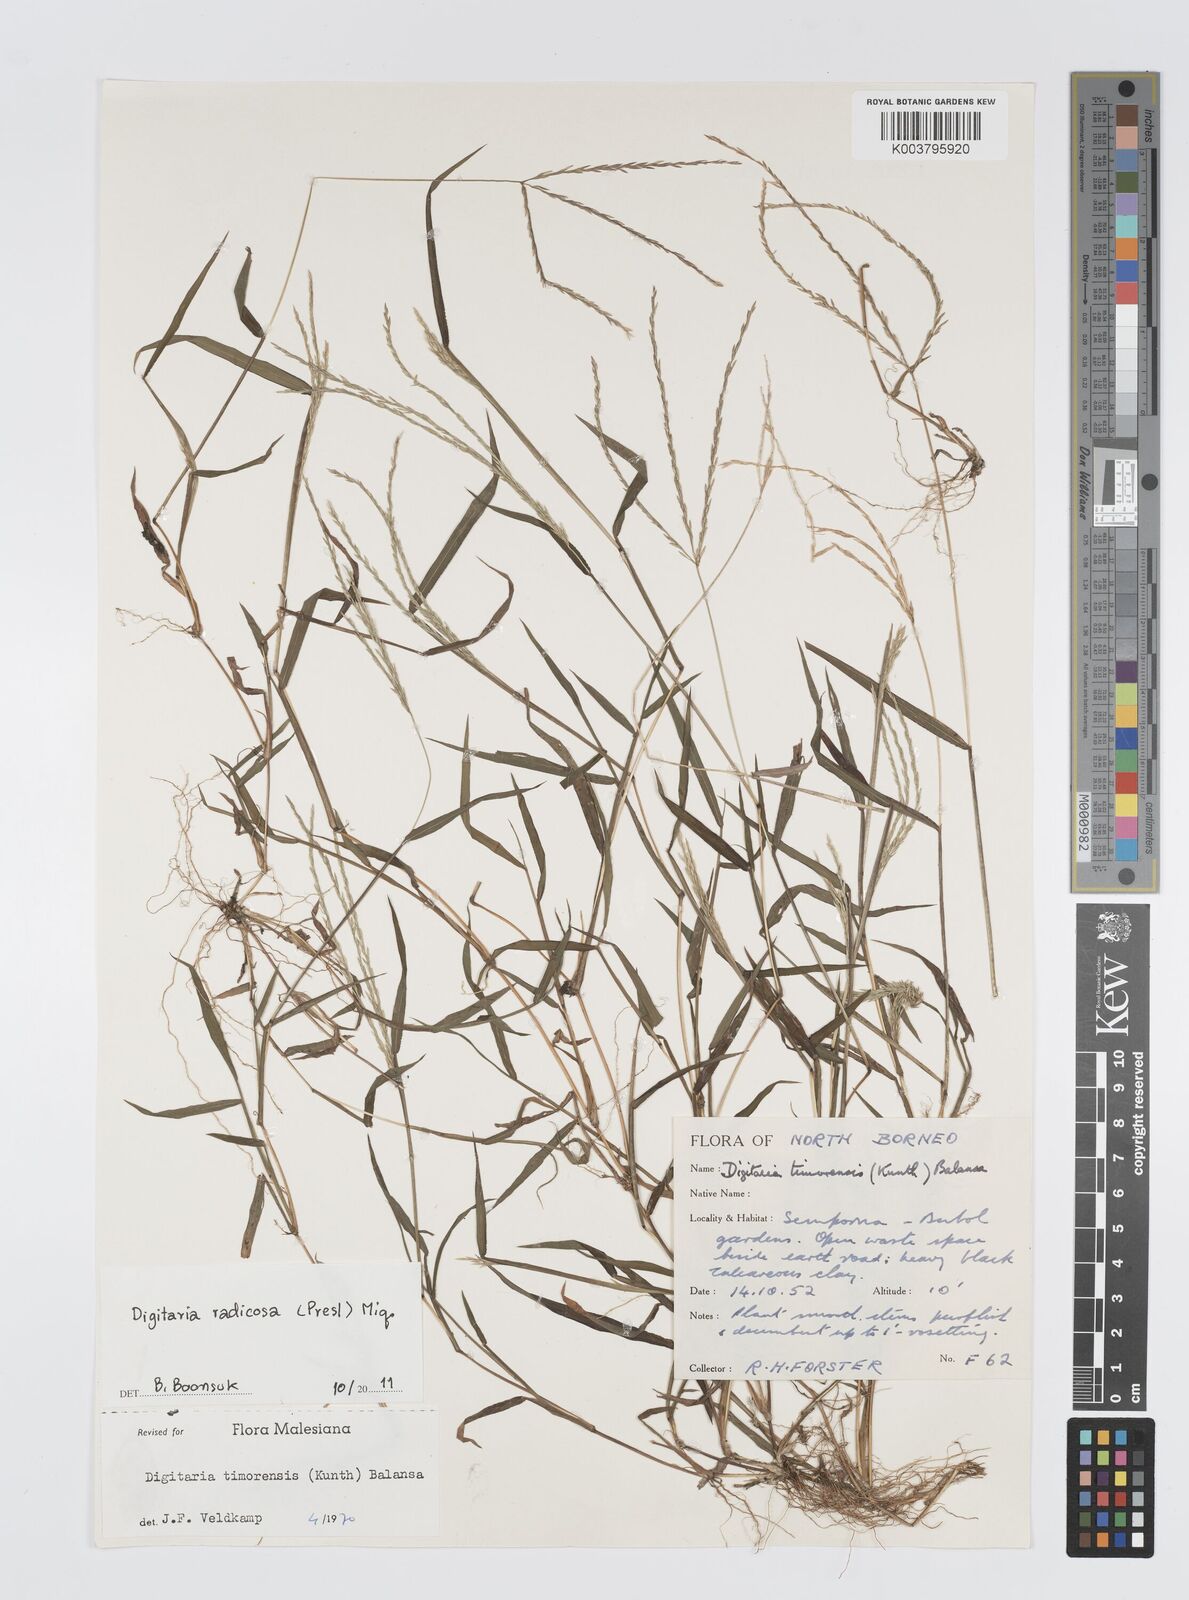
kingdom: Plantae
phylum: Tracheophyta
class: Liliopsida
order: Poales
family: Poaceae
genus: Digitaria
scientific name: Digitaria radicosa
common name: Trailing crabgrass
